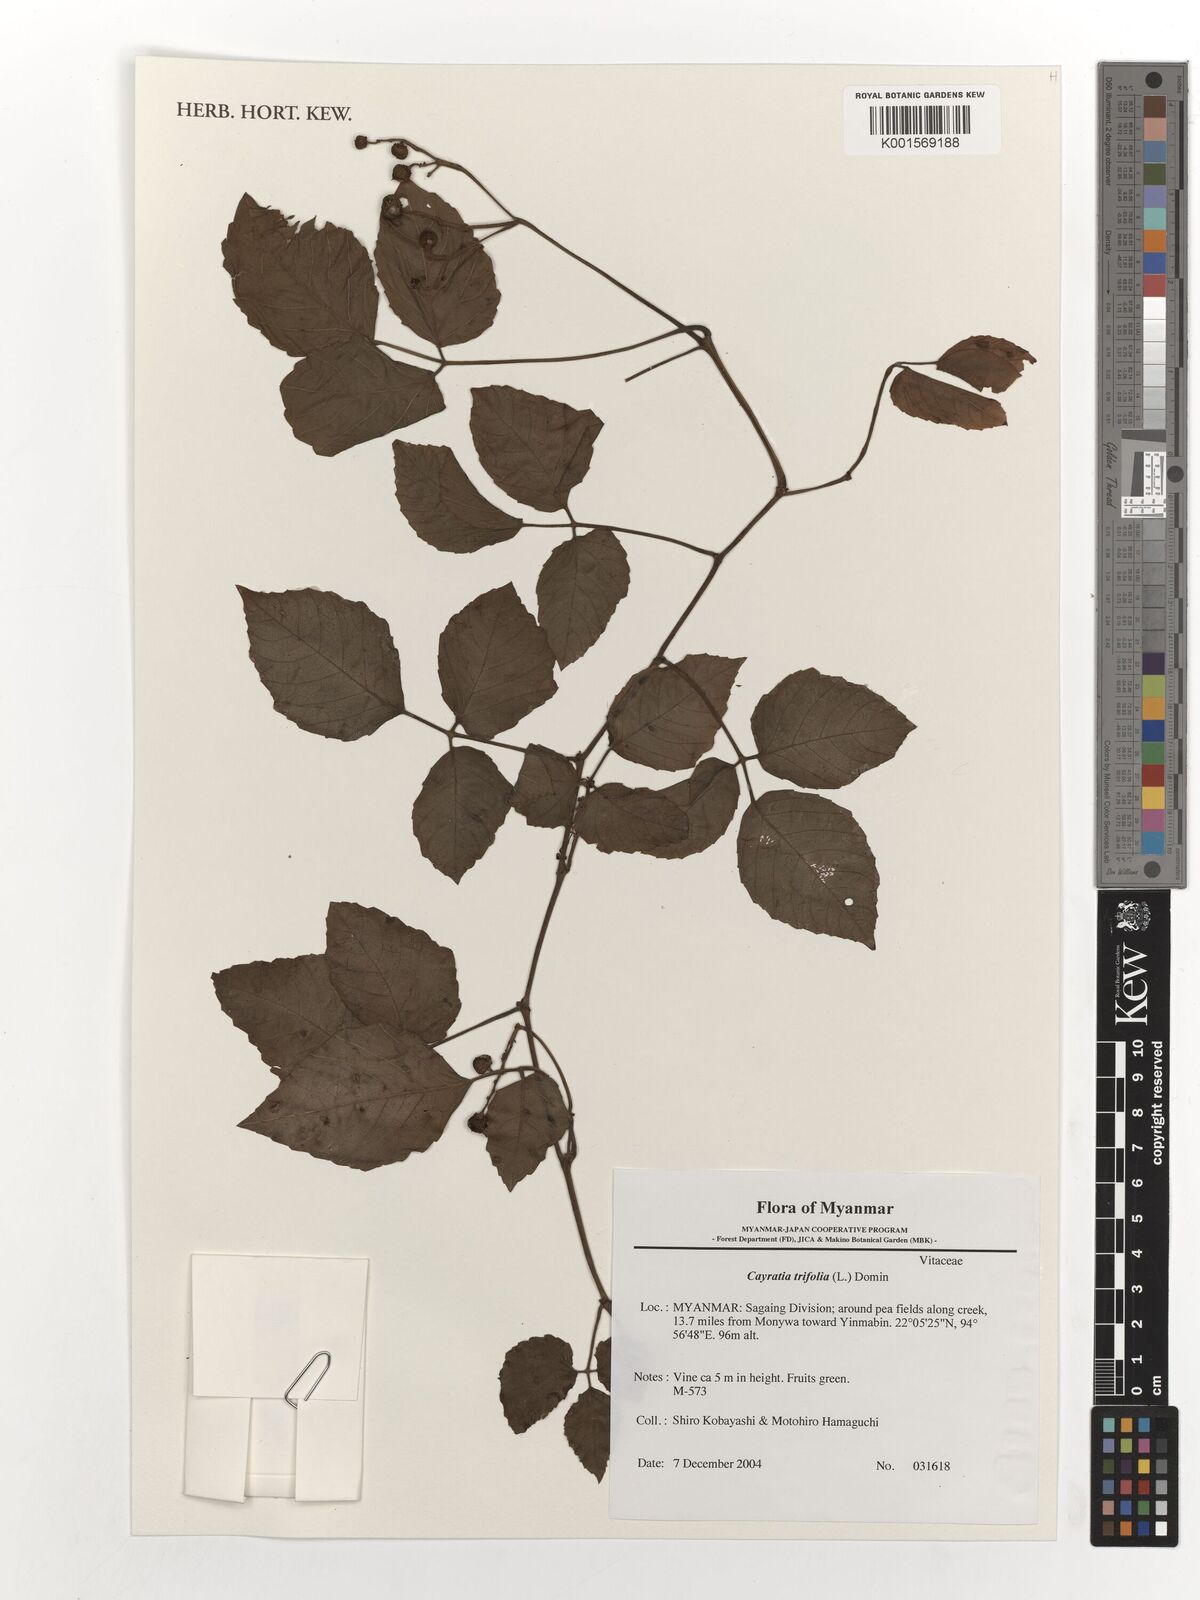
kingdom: Plantae
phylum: Tracheophyta
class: Magnoliopsida
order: Vitales
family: Vitaceae
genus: Causonis
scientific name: Causonis trifolia
